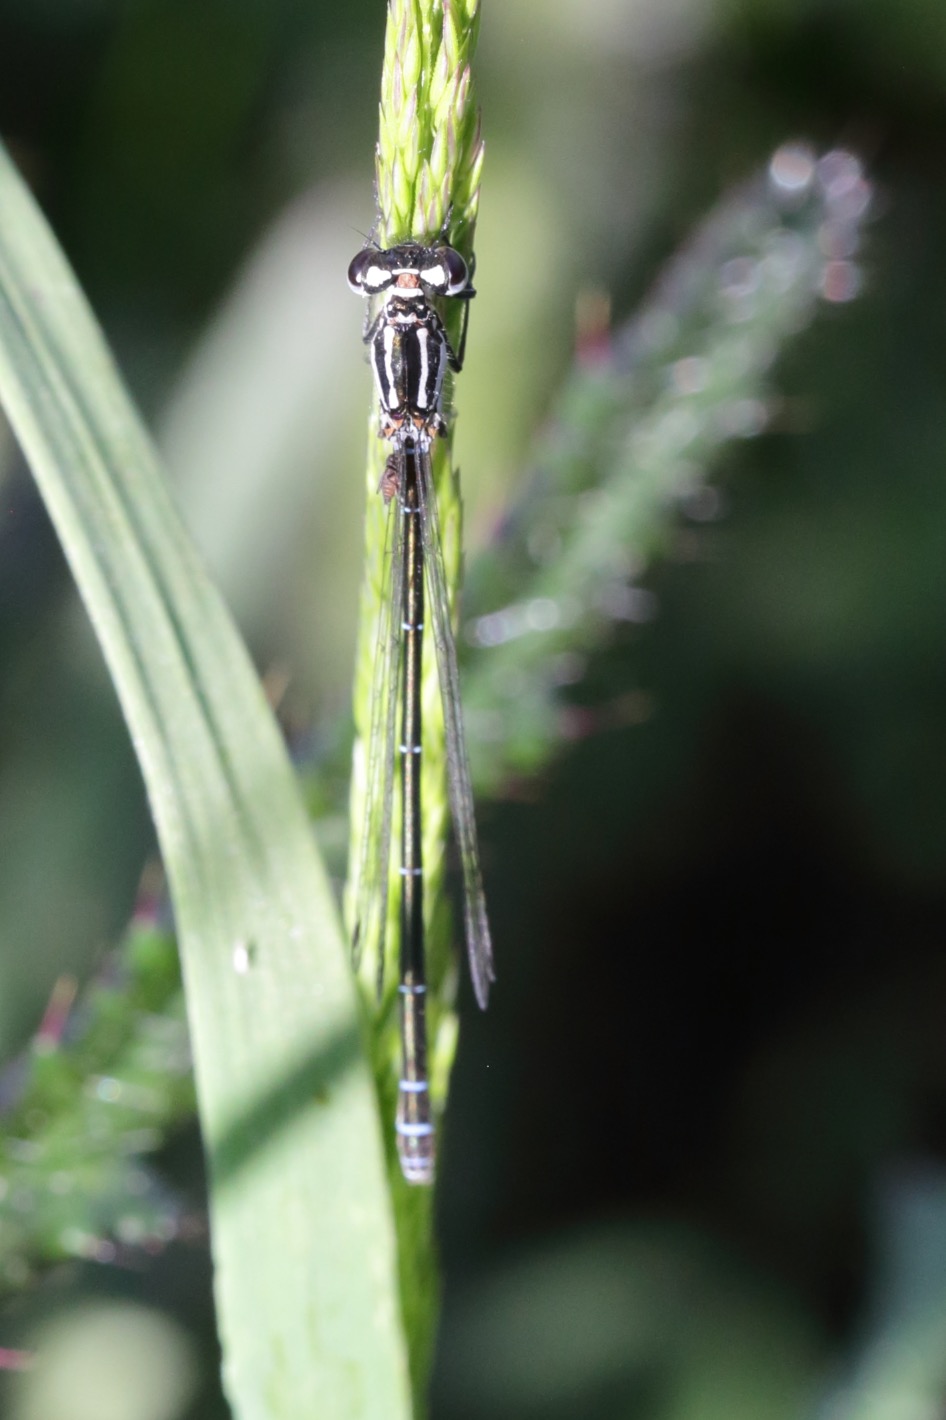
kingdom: Animalia
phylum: Arthropoda
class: Insecta
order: Odonata
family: Coenagrionidae
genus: Coenagrion
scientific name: Coenagrion pulchellum
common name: Flagermus-vandnymfe
